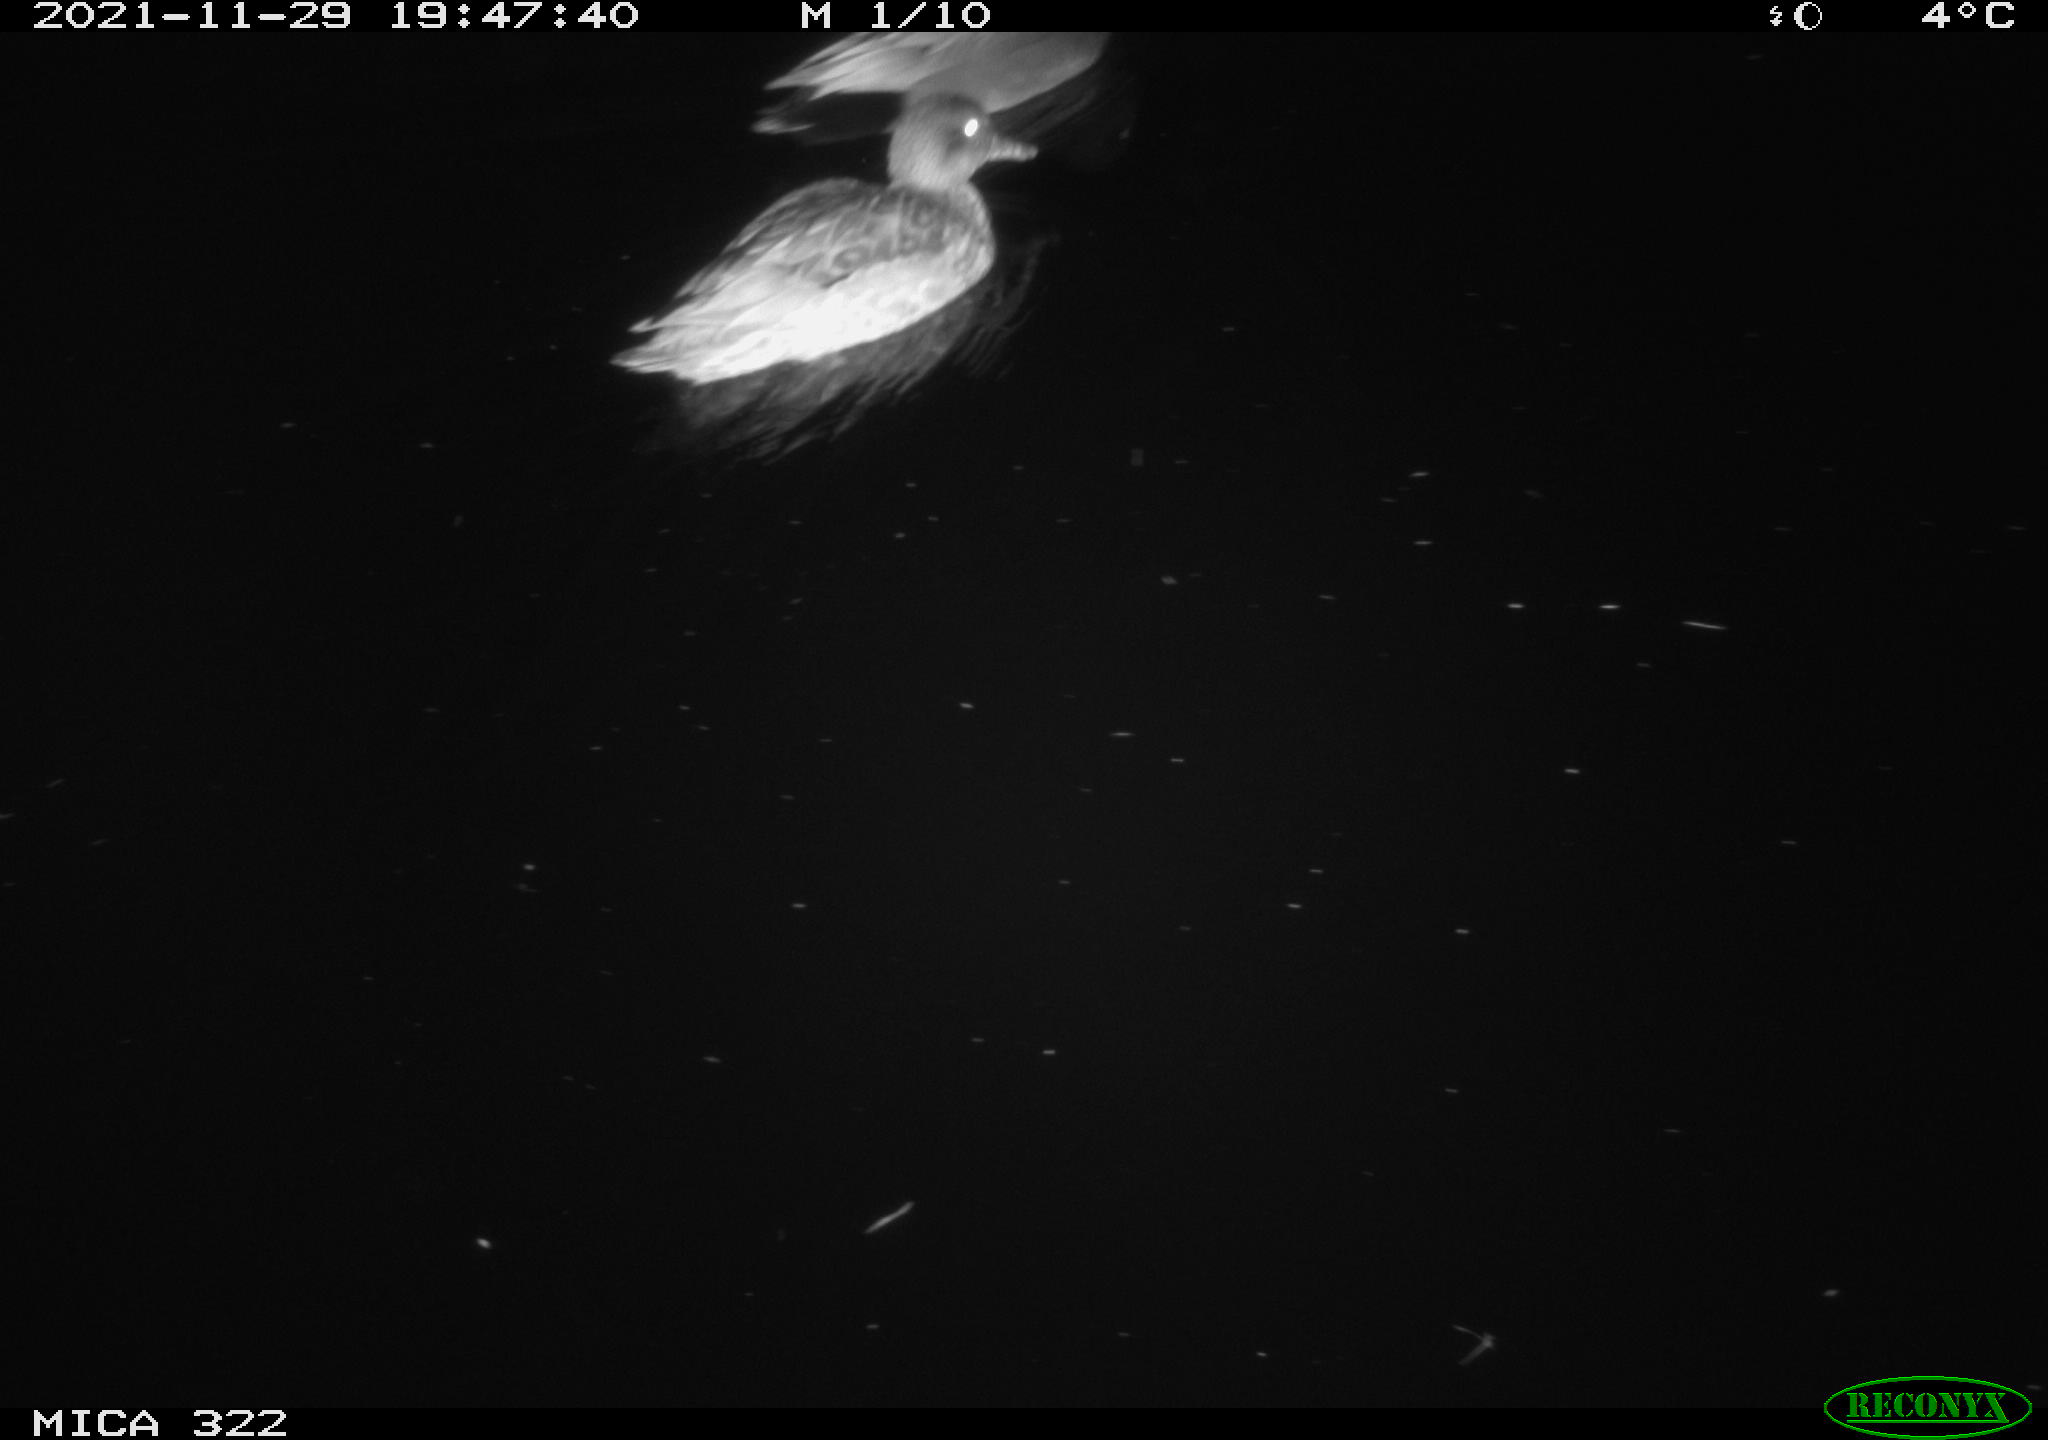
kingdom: Animalia
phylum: Chordata
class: Aves
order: Anseriformes
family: Anatidae
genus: Anas
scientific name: Anas platyrhynchos
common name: Mallard
